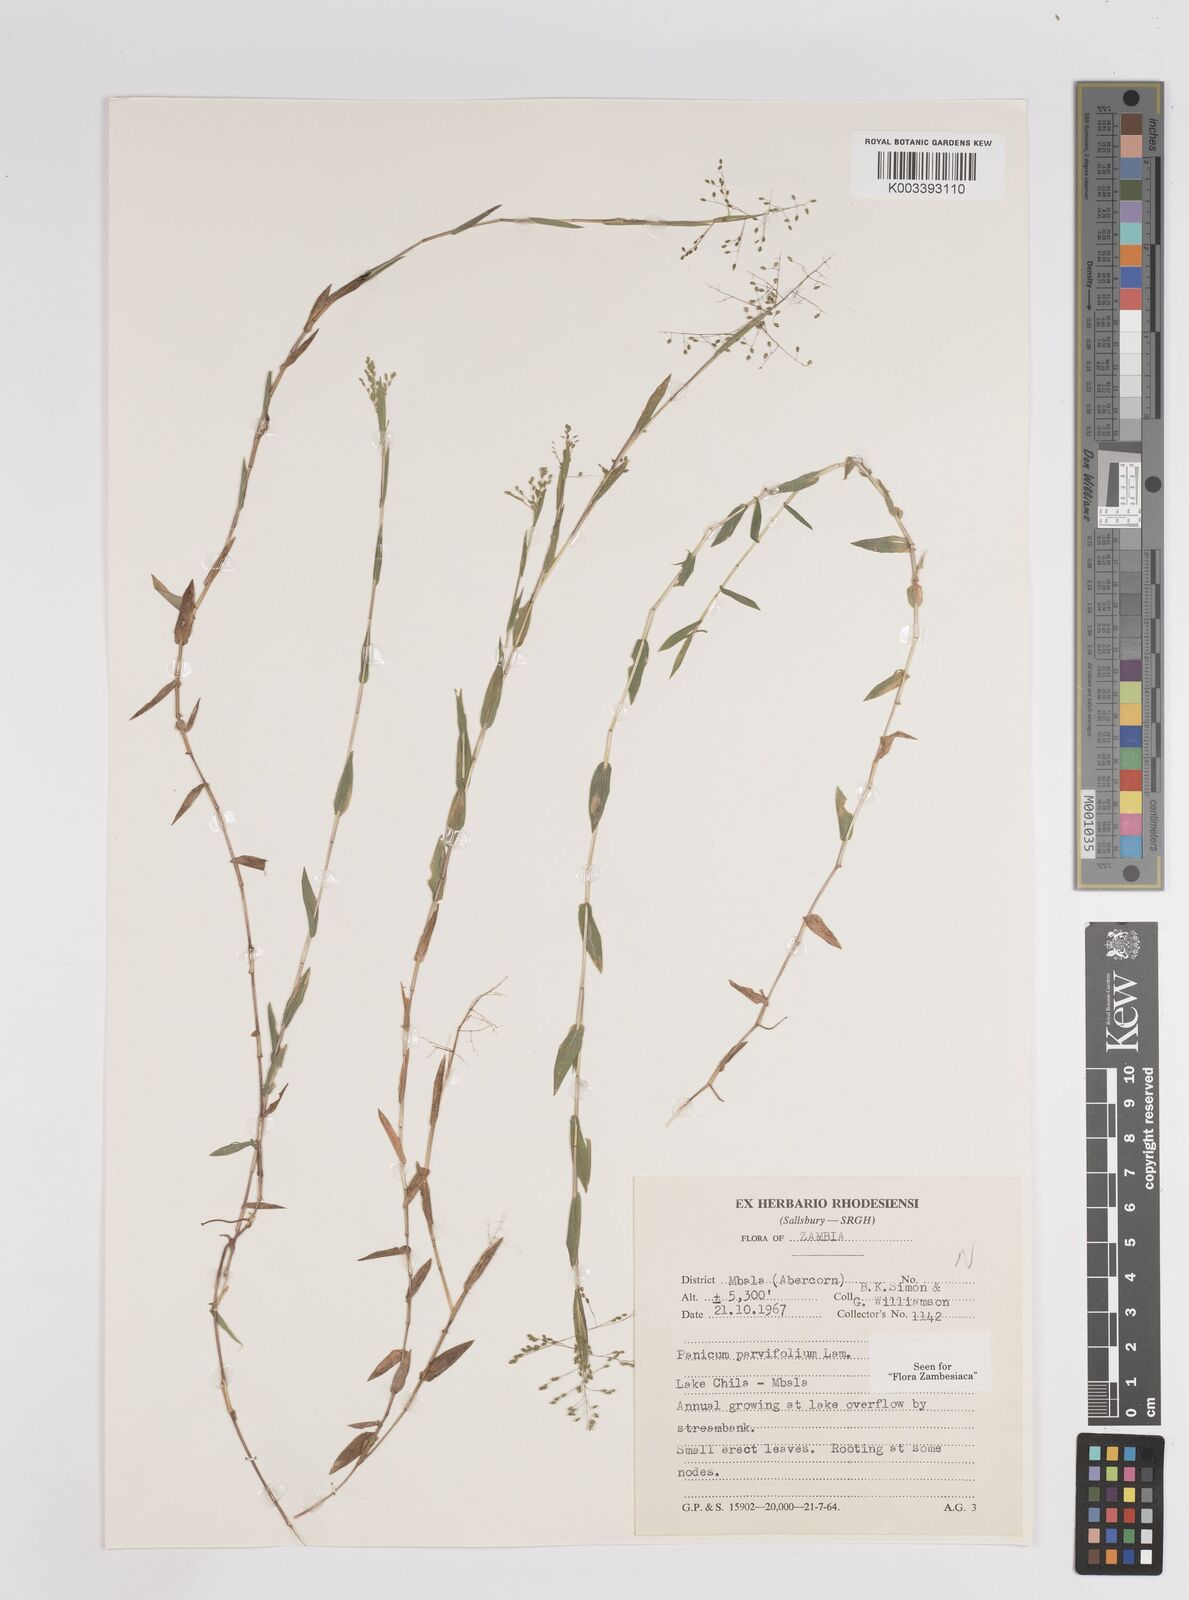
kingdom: Plantae
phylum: Tracheophyta
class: Liliopsida
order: Poales
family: Poaceae
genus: Trichanthecium
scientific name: Trichanthecium parvifolium
